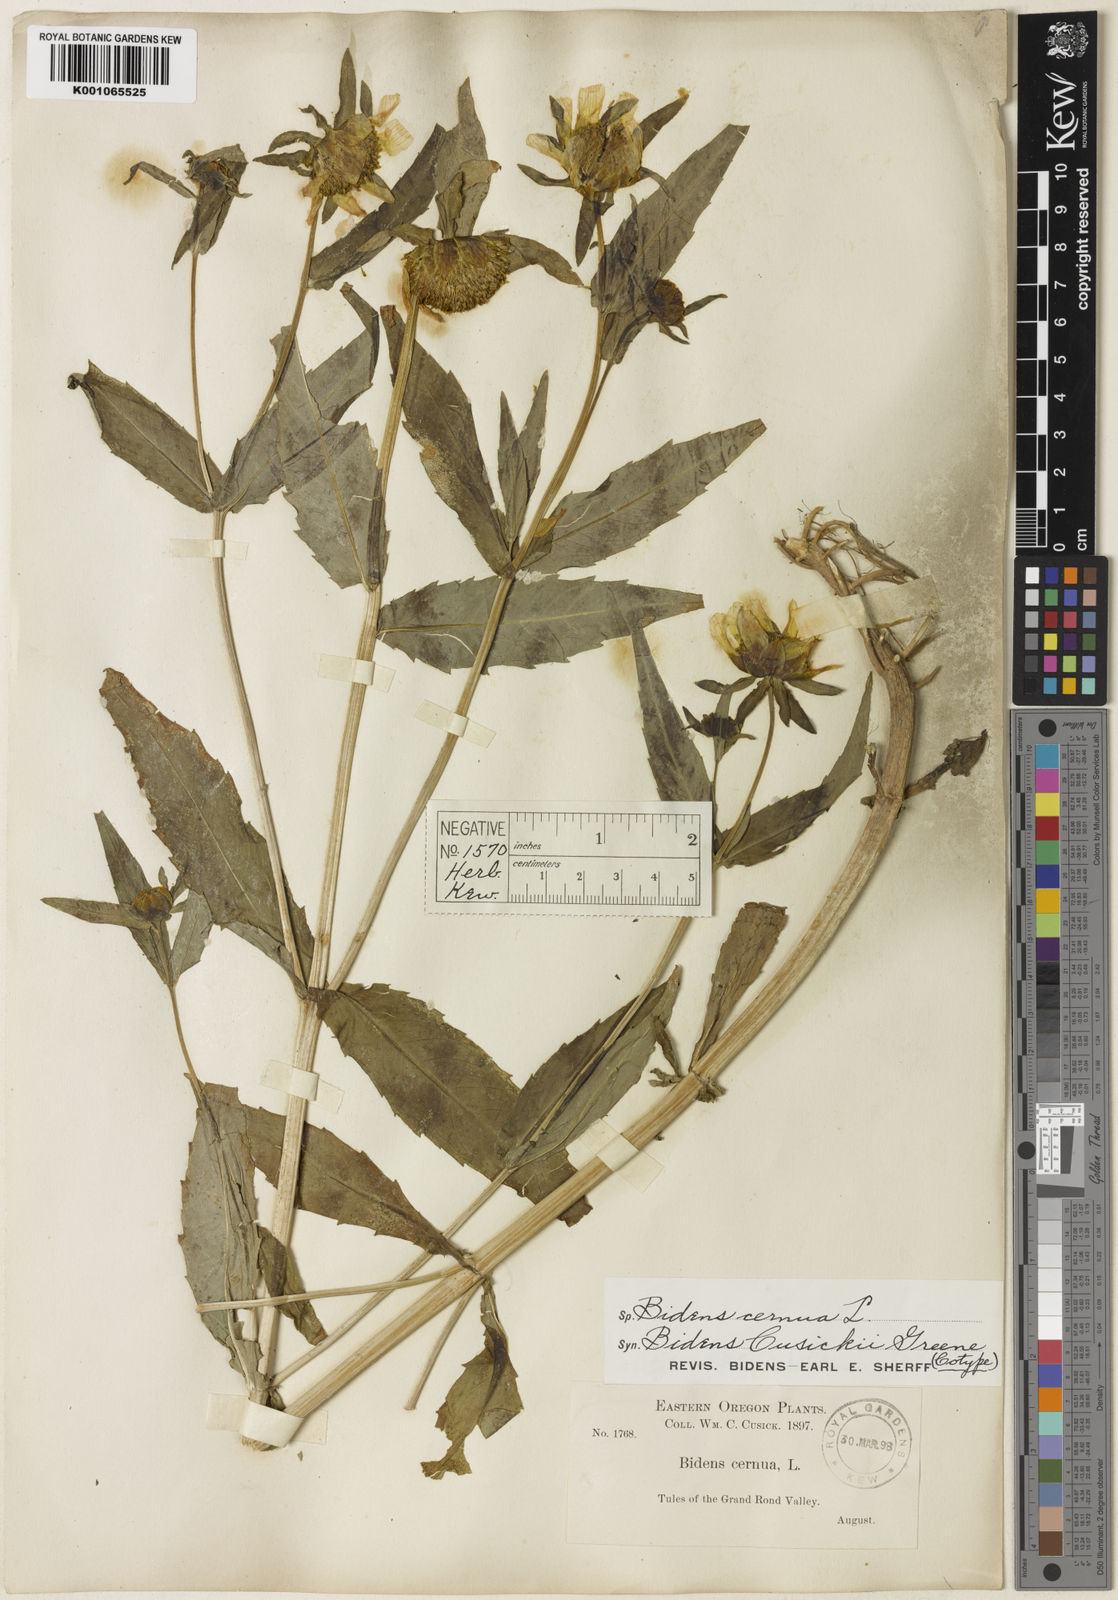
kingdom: Plantae
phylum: Tracheophyta
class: Magnoliopsida
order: Asterales
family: Asteraceae
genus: Bidens
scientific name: Bidens cernua
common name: Nodding bur-marigold
